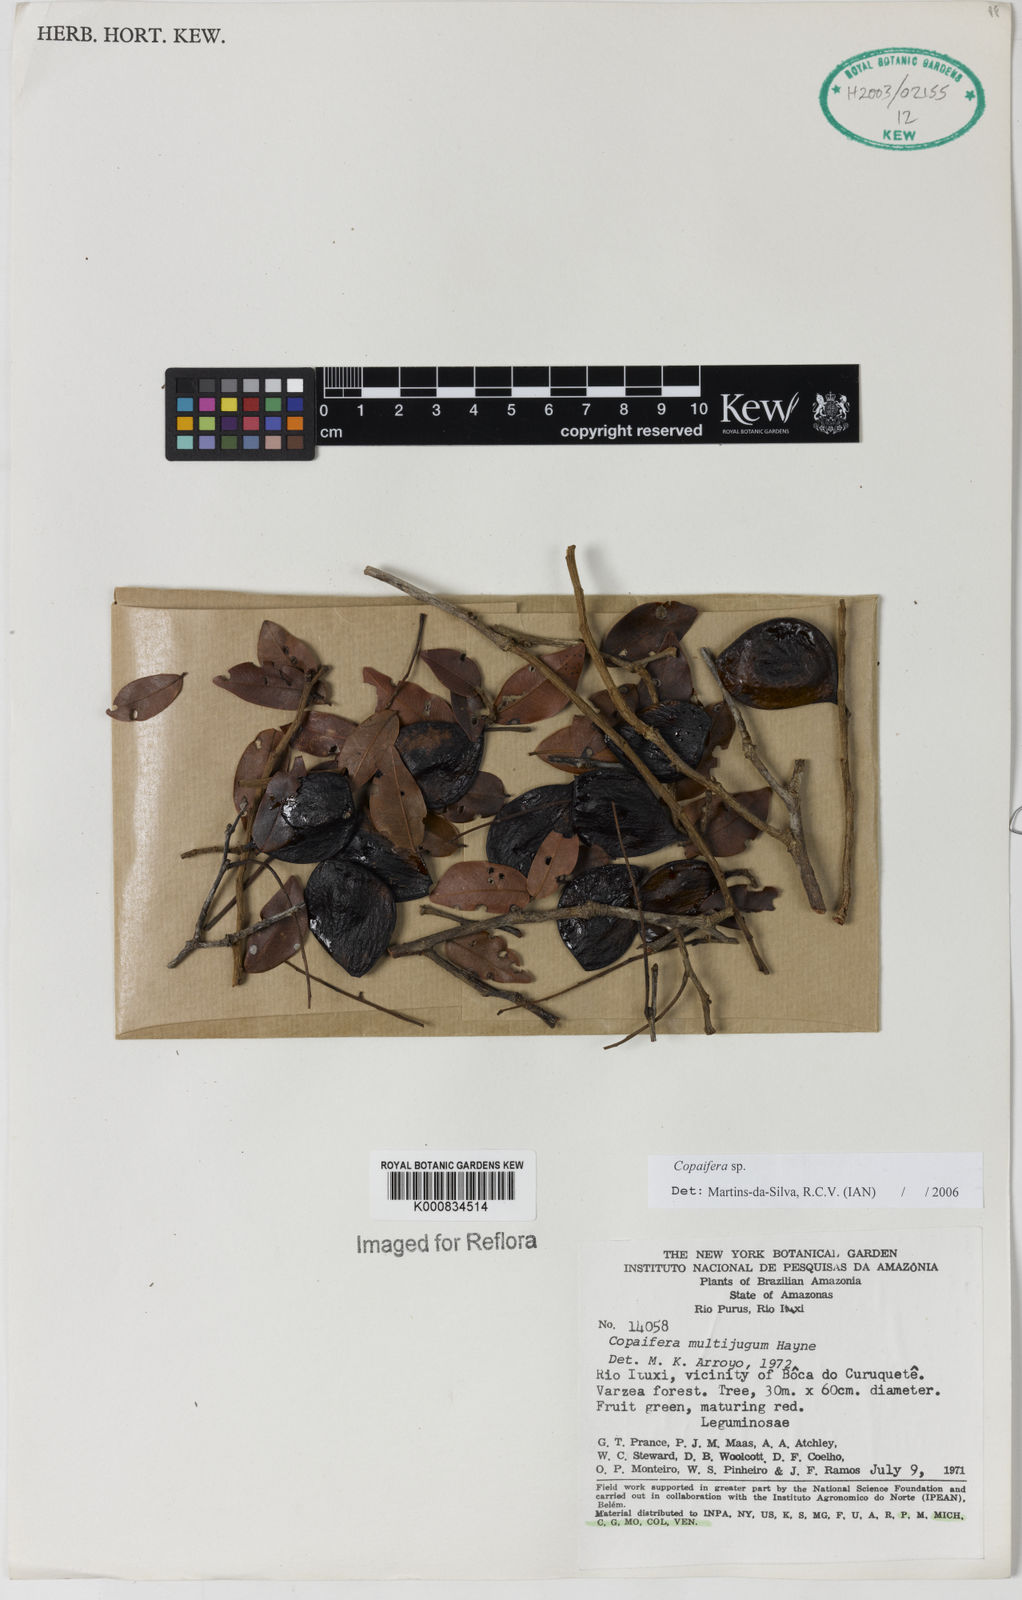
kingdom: Plantae
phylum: Tracheophyta
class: Magnoliopsida
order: Fabales
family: Fabaceae
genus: Copaifera
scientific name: Copaifera
